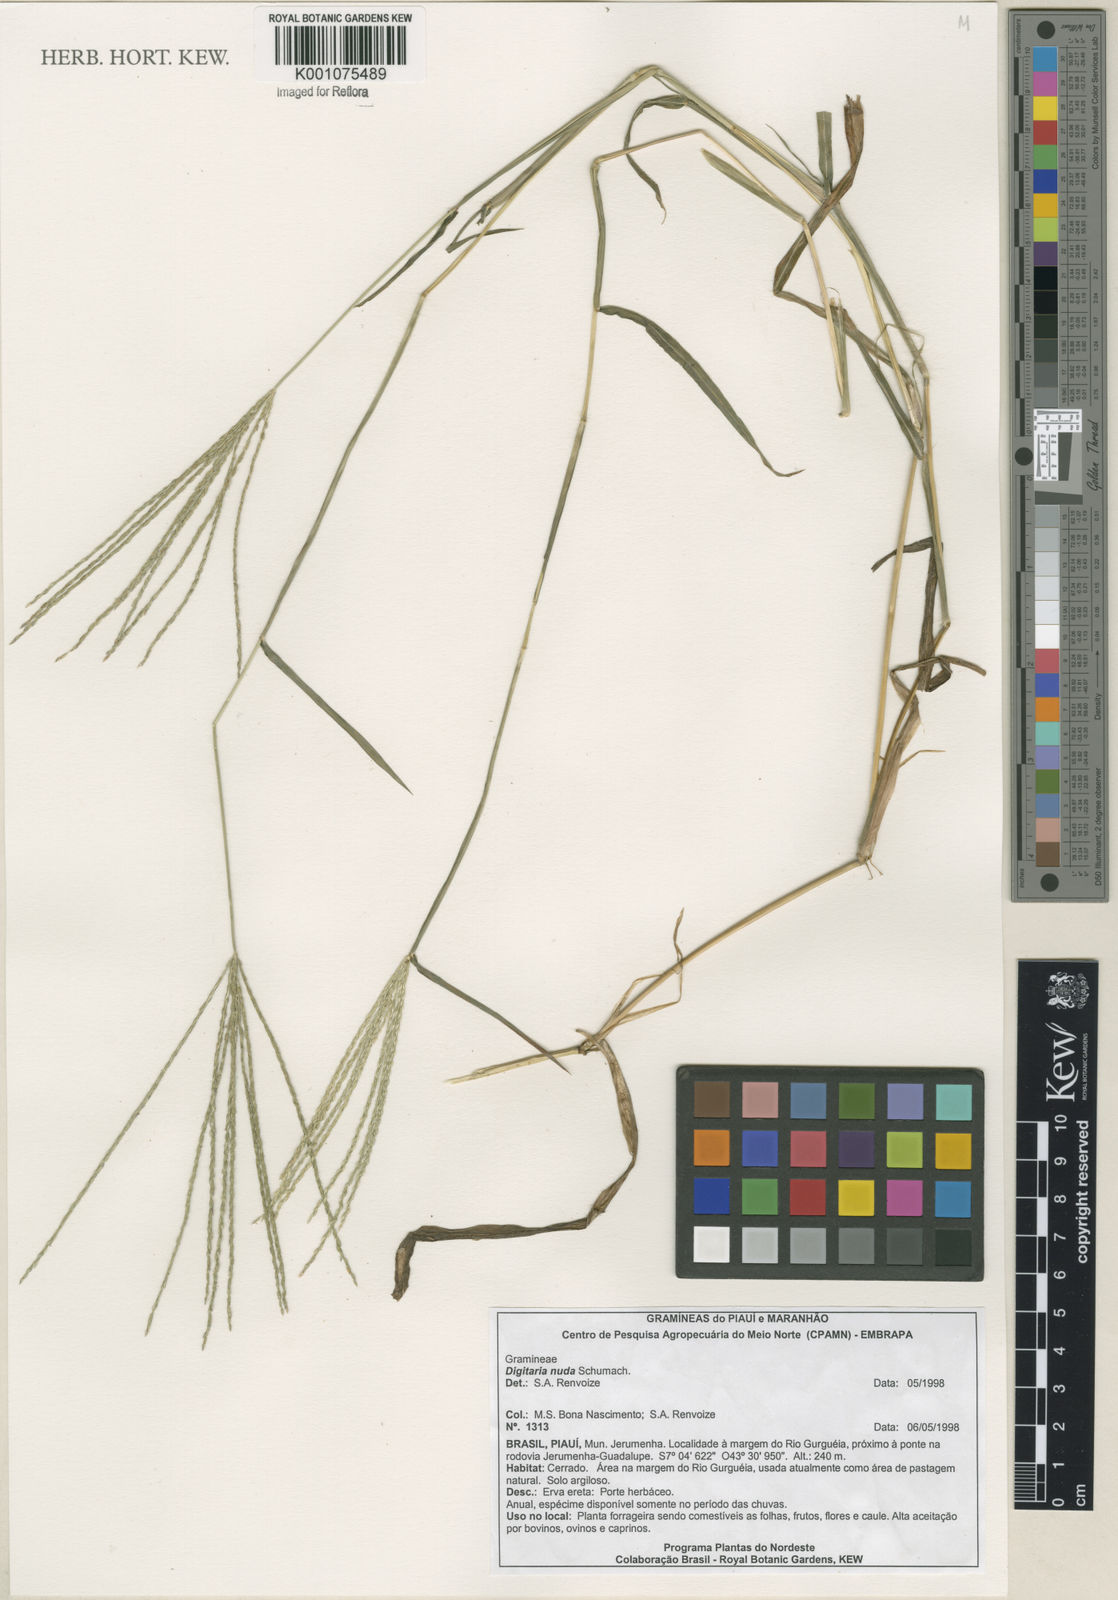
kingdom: Plantae
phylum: Tracheophyta
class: Liliopsida
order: Poales
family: Poaceae
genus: Digitaria
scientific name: Digitaria nuda
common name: Naked crabgrass
